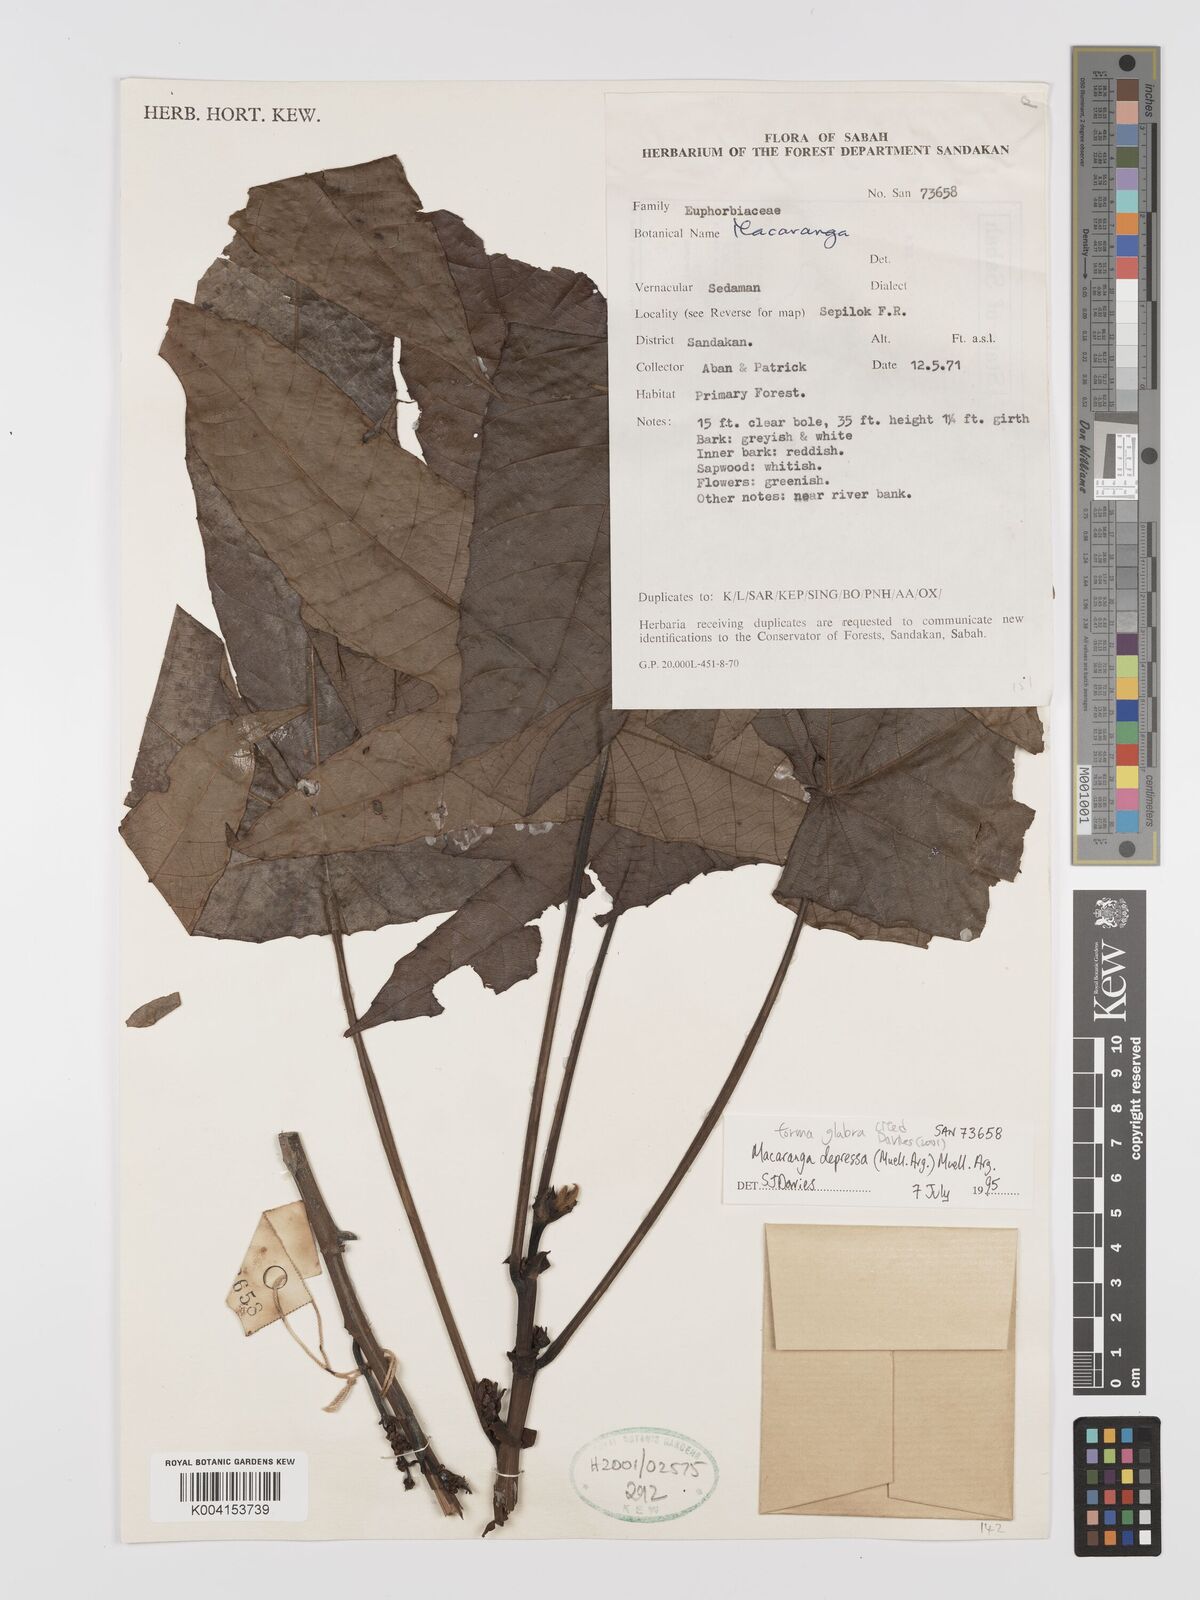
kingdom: Plantae
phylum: Tracheophyta
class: Magnoliopsida
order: Malpighiales
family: Euphorbiaceae
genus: Macaranga
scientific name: Macaranga depressa
